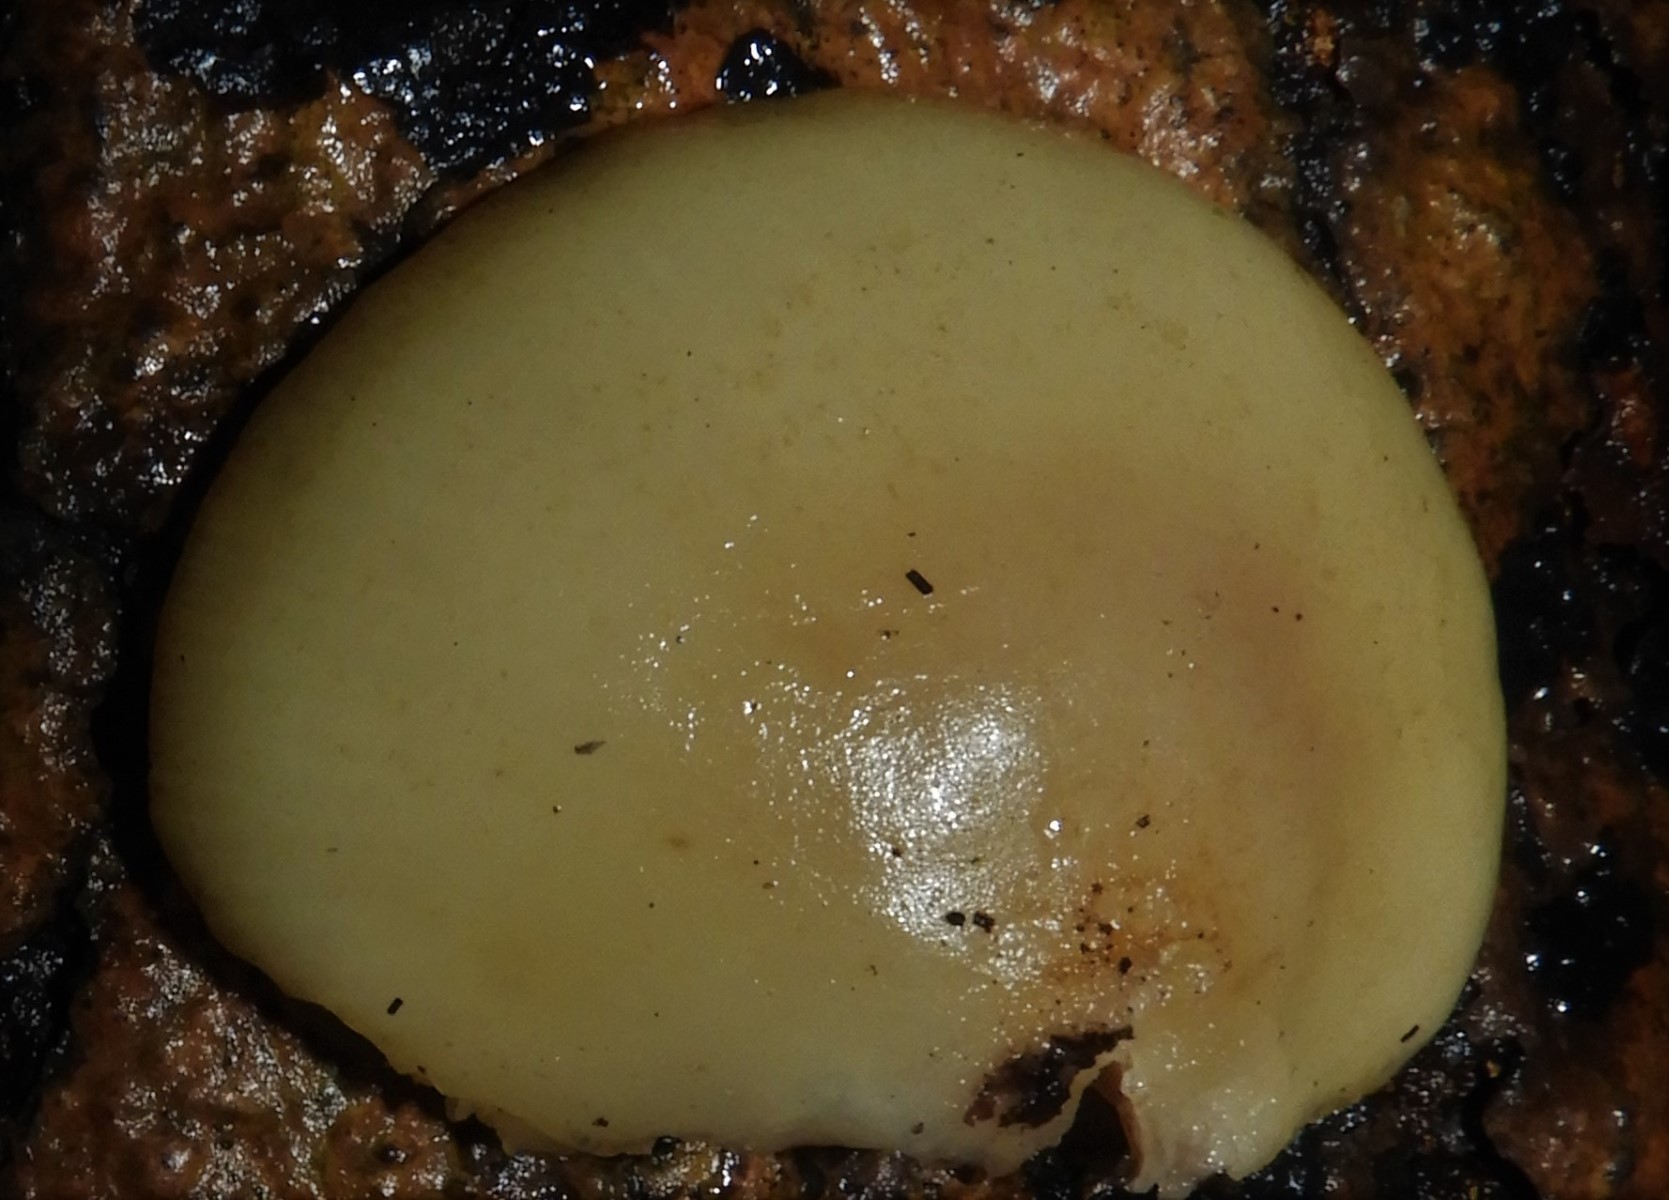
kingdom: Fungi
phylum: Basidiomycota
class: Agaricomycetes
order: Agaricales
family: Crepidotaceae
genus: Crepidotus
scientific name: Crepidotus mollis
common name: blød muslingesvamp
